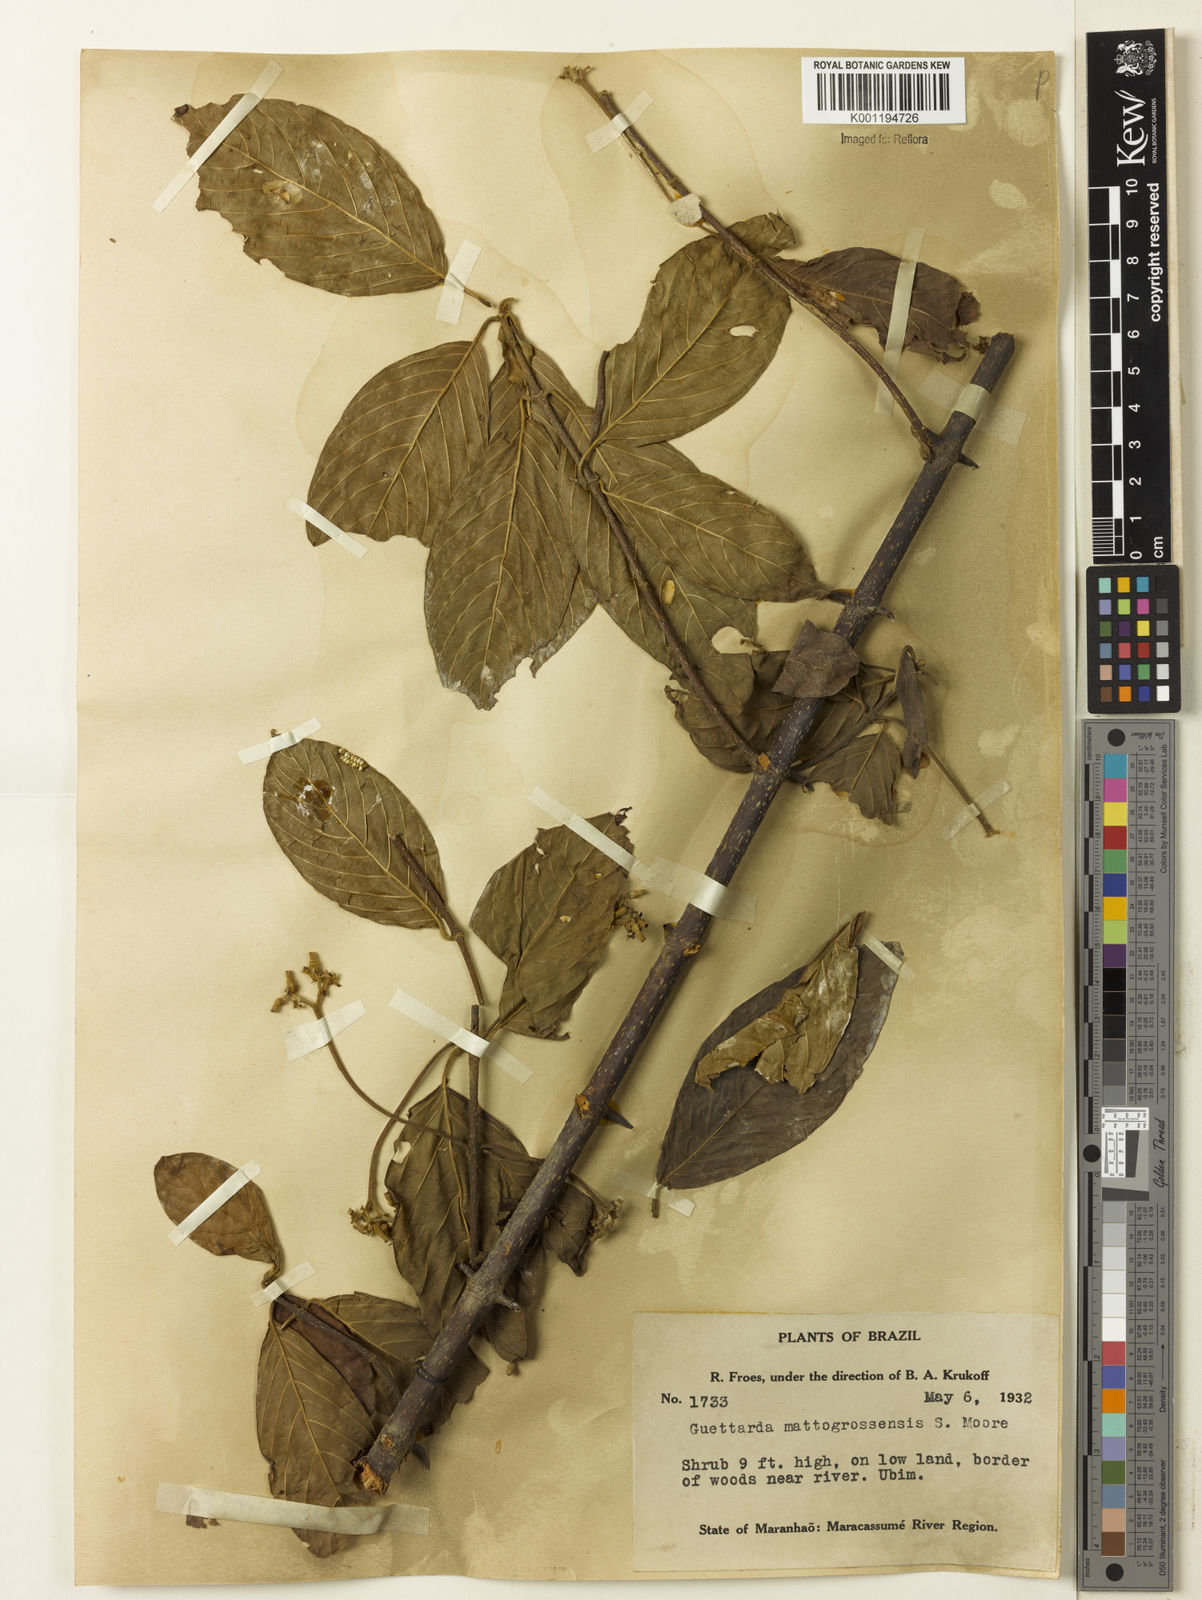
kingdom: Plantae
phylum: Tracheophyta
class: Magnoliopsida
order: Gentianales
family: Rubiaceae
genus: Guettarda
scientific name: Guettarda mattogrossensis
